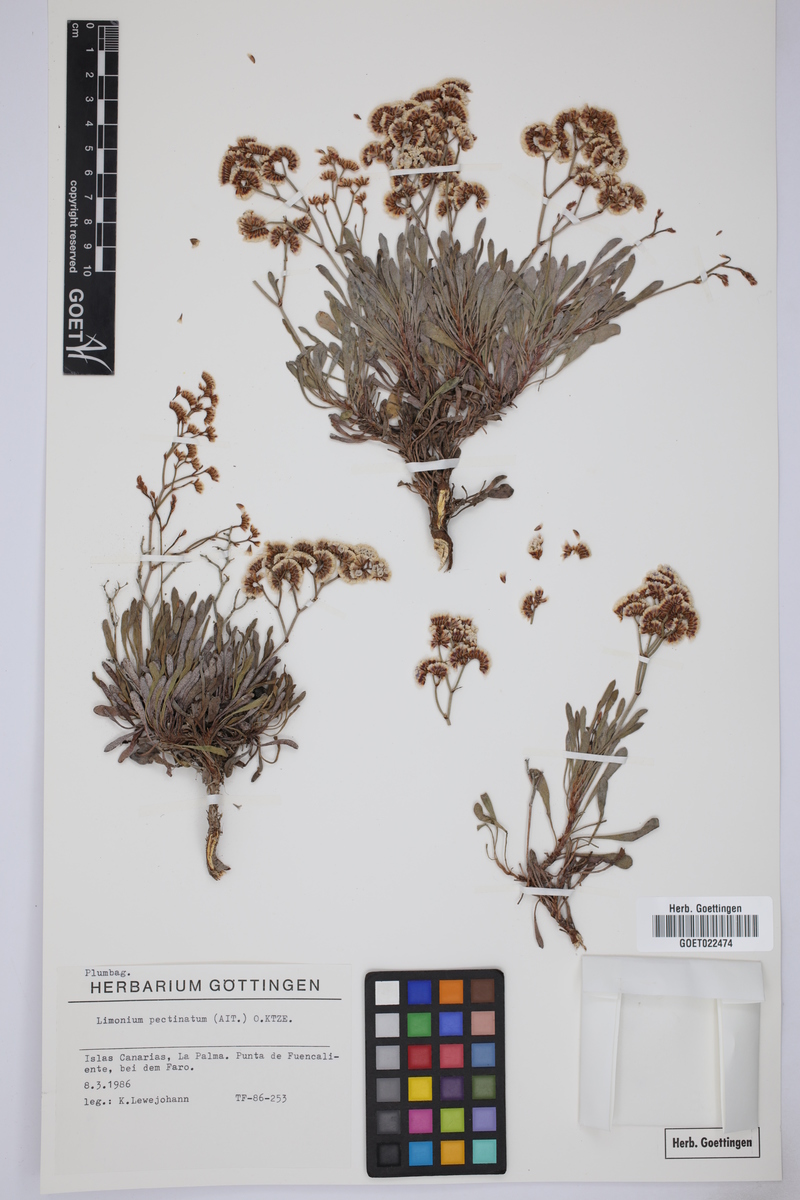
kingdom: Plantae
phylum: Tracheophyta
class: Magnoliopsida
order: Caryophyllales
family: Plumbaginaceae
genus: Limonium
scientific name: Limonium pectinatum
